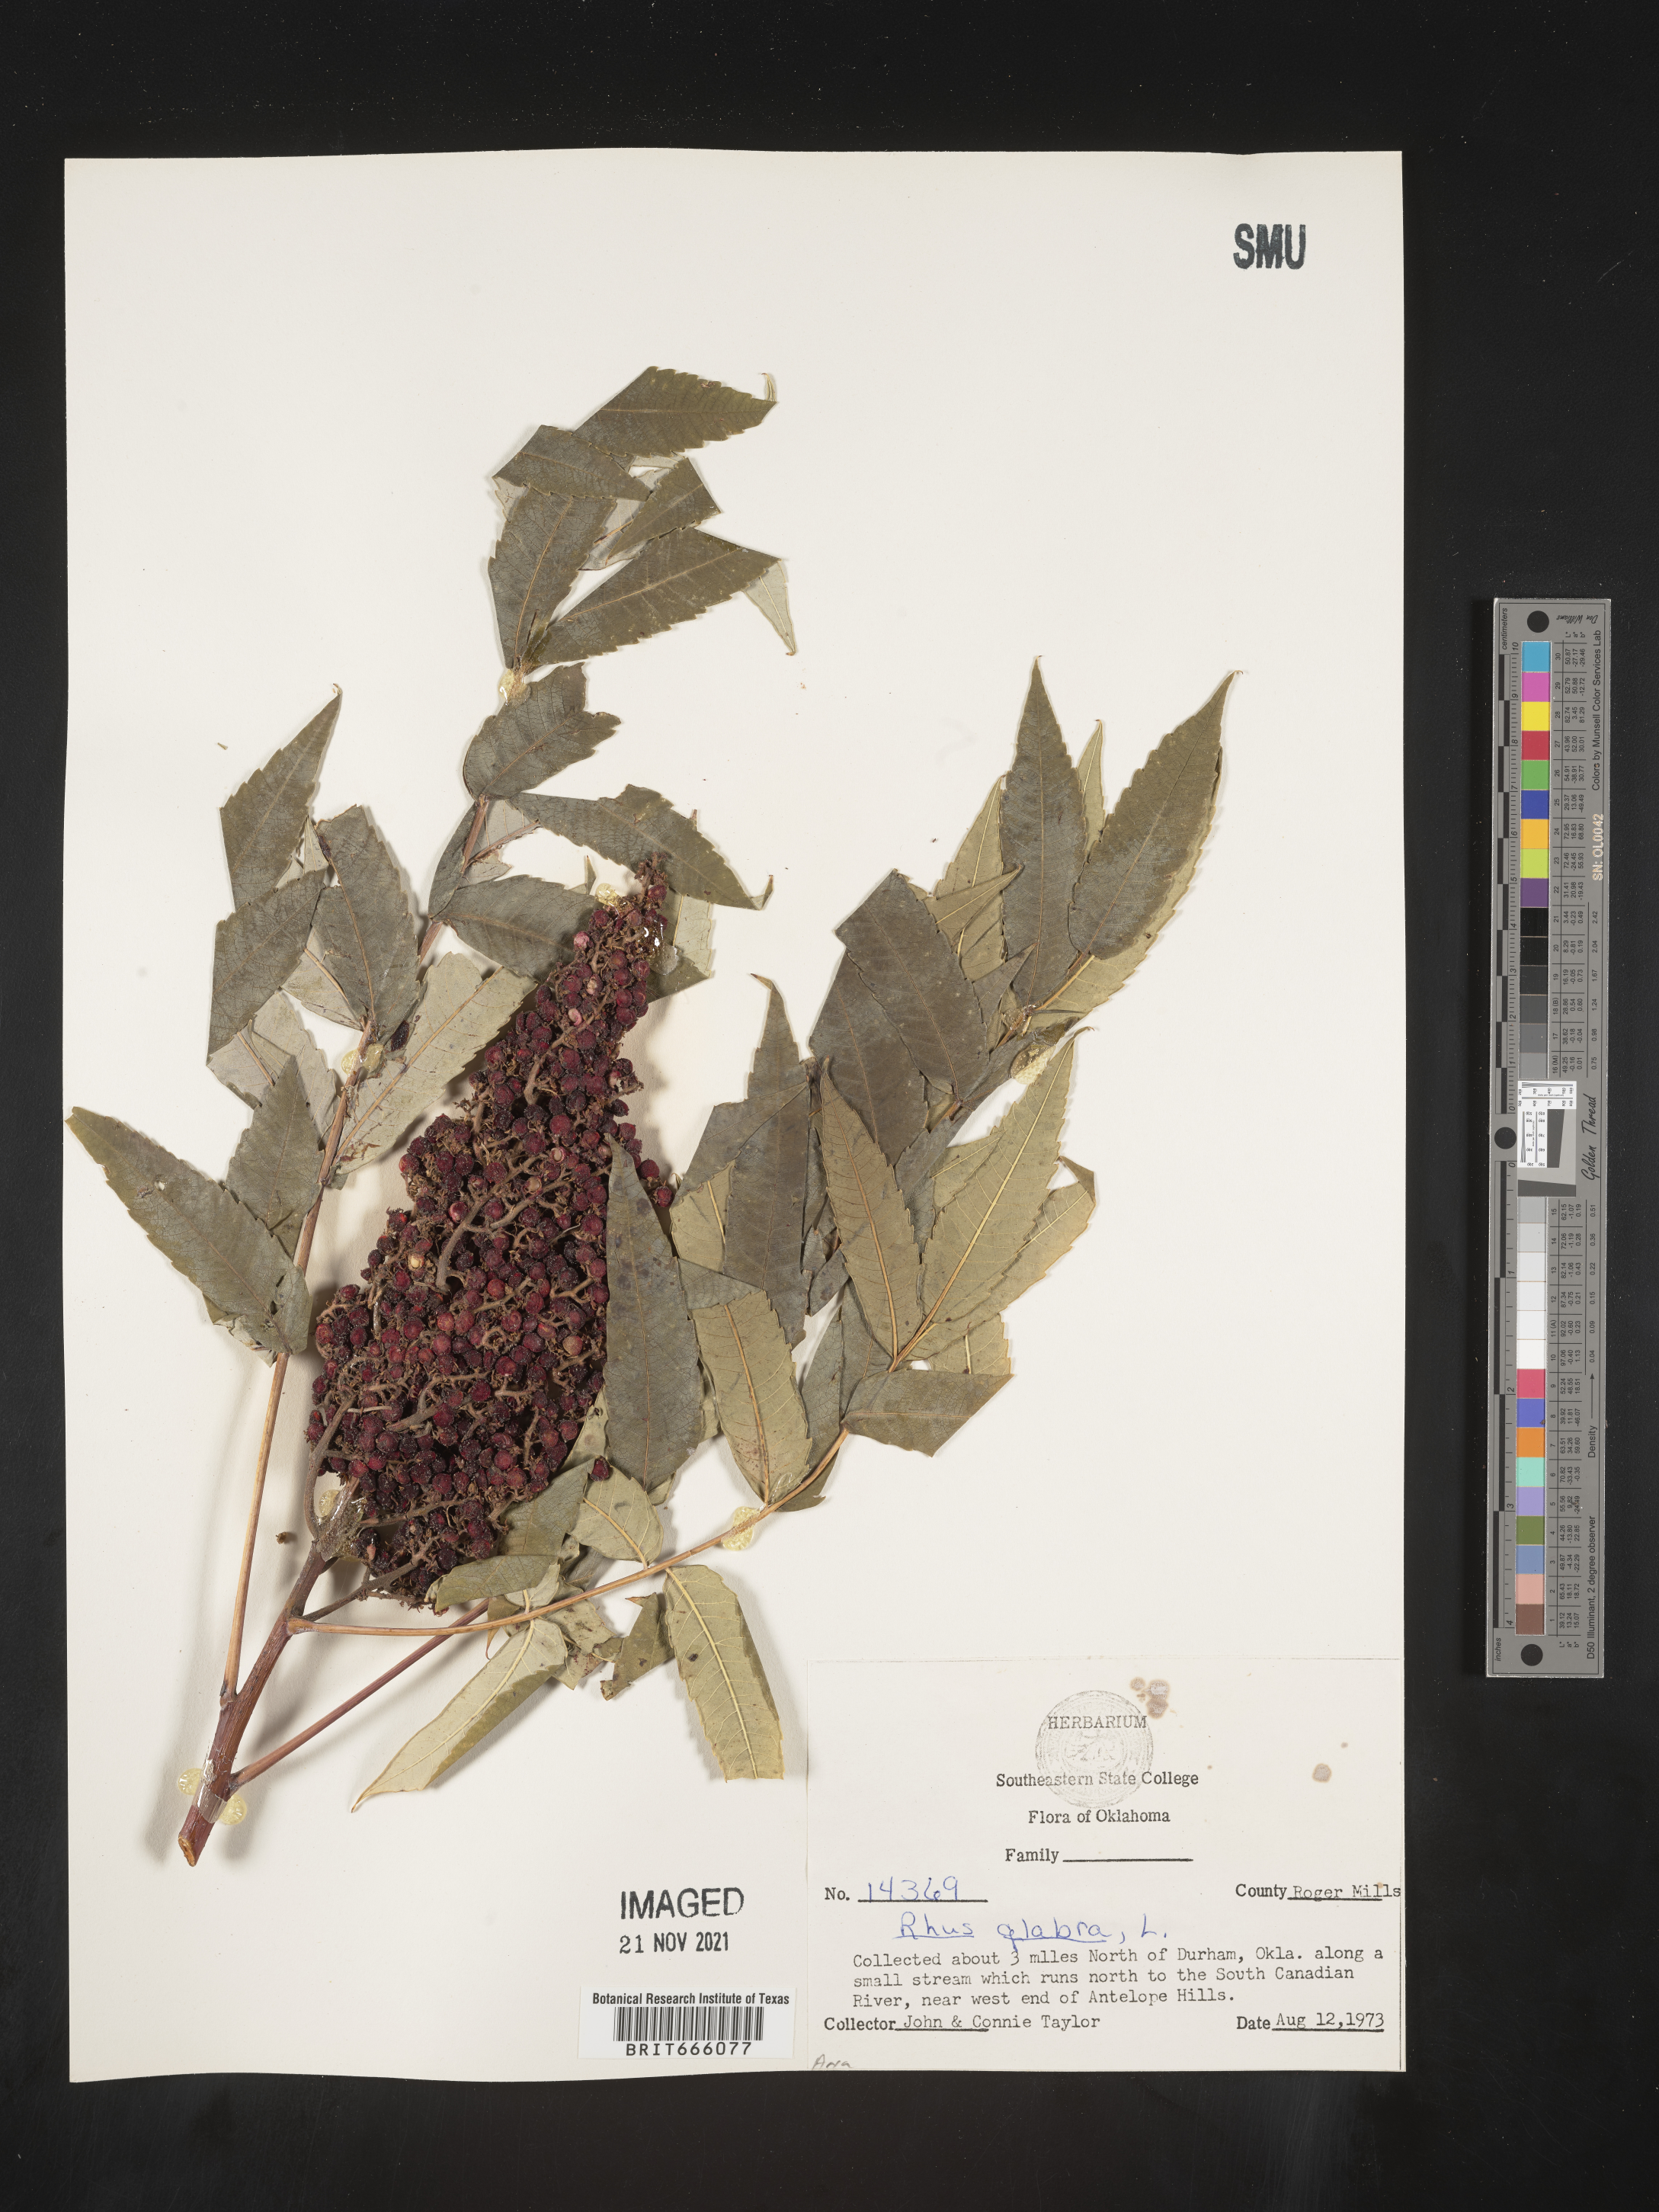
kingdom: Plantae
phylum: Tracheophyta
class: Magnoliopsida
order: Sapindales
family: Anacardiaceae
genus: Rhus
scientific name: Rhus glabra
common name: Scarlet sumac
